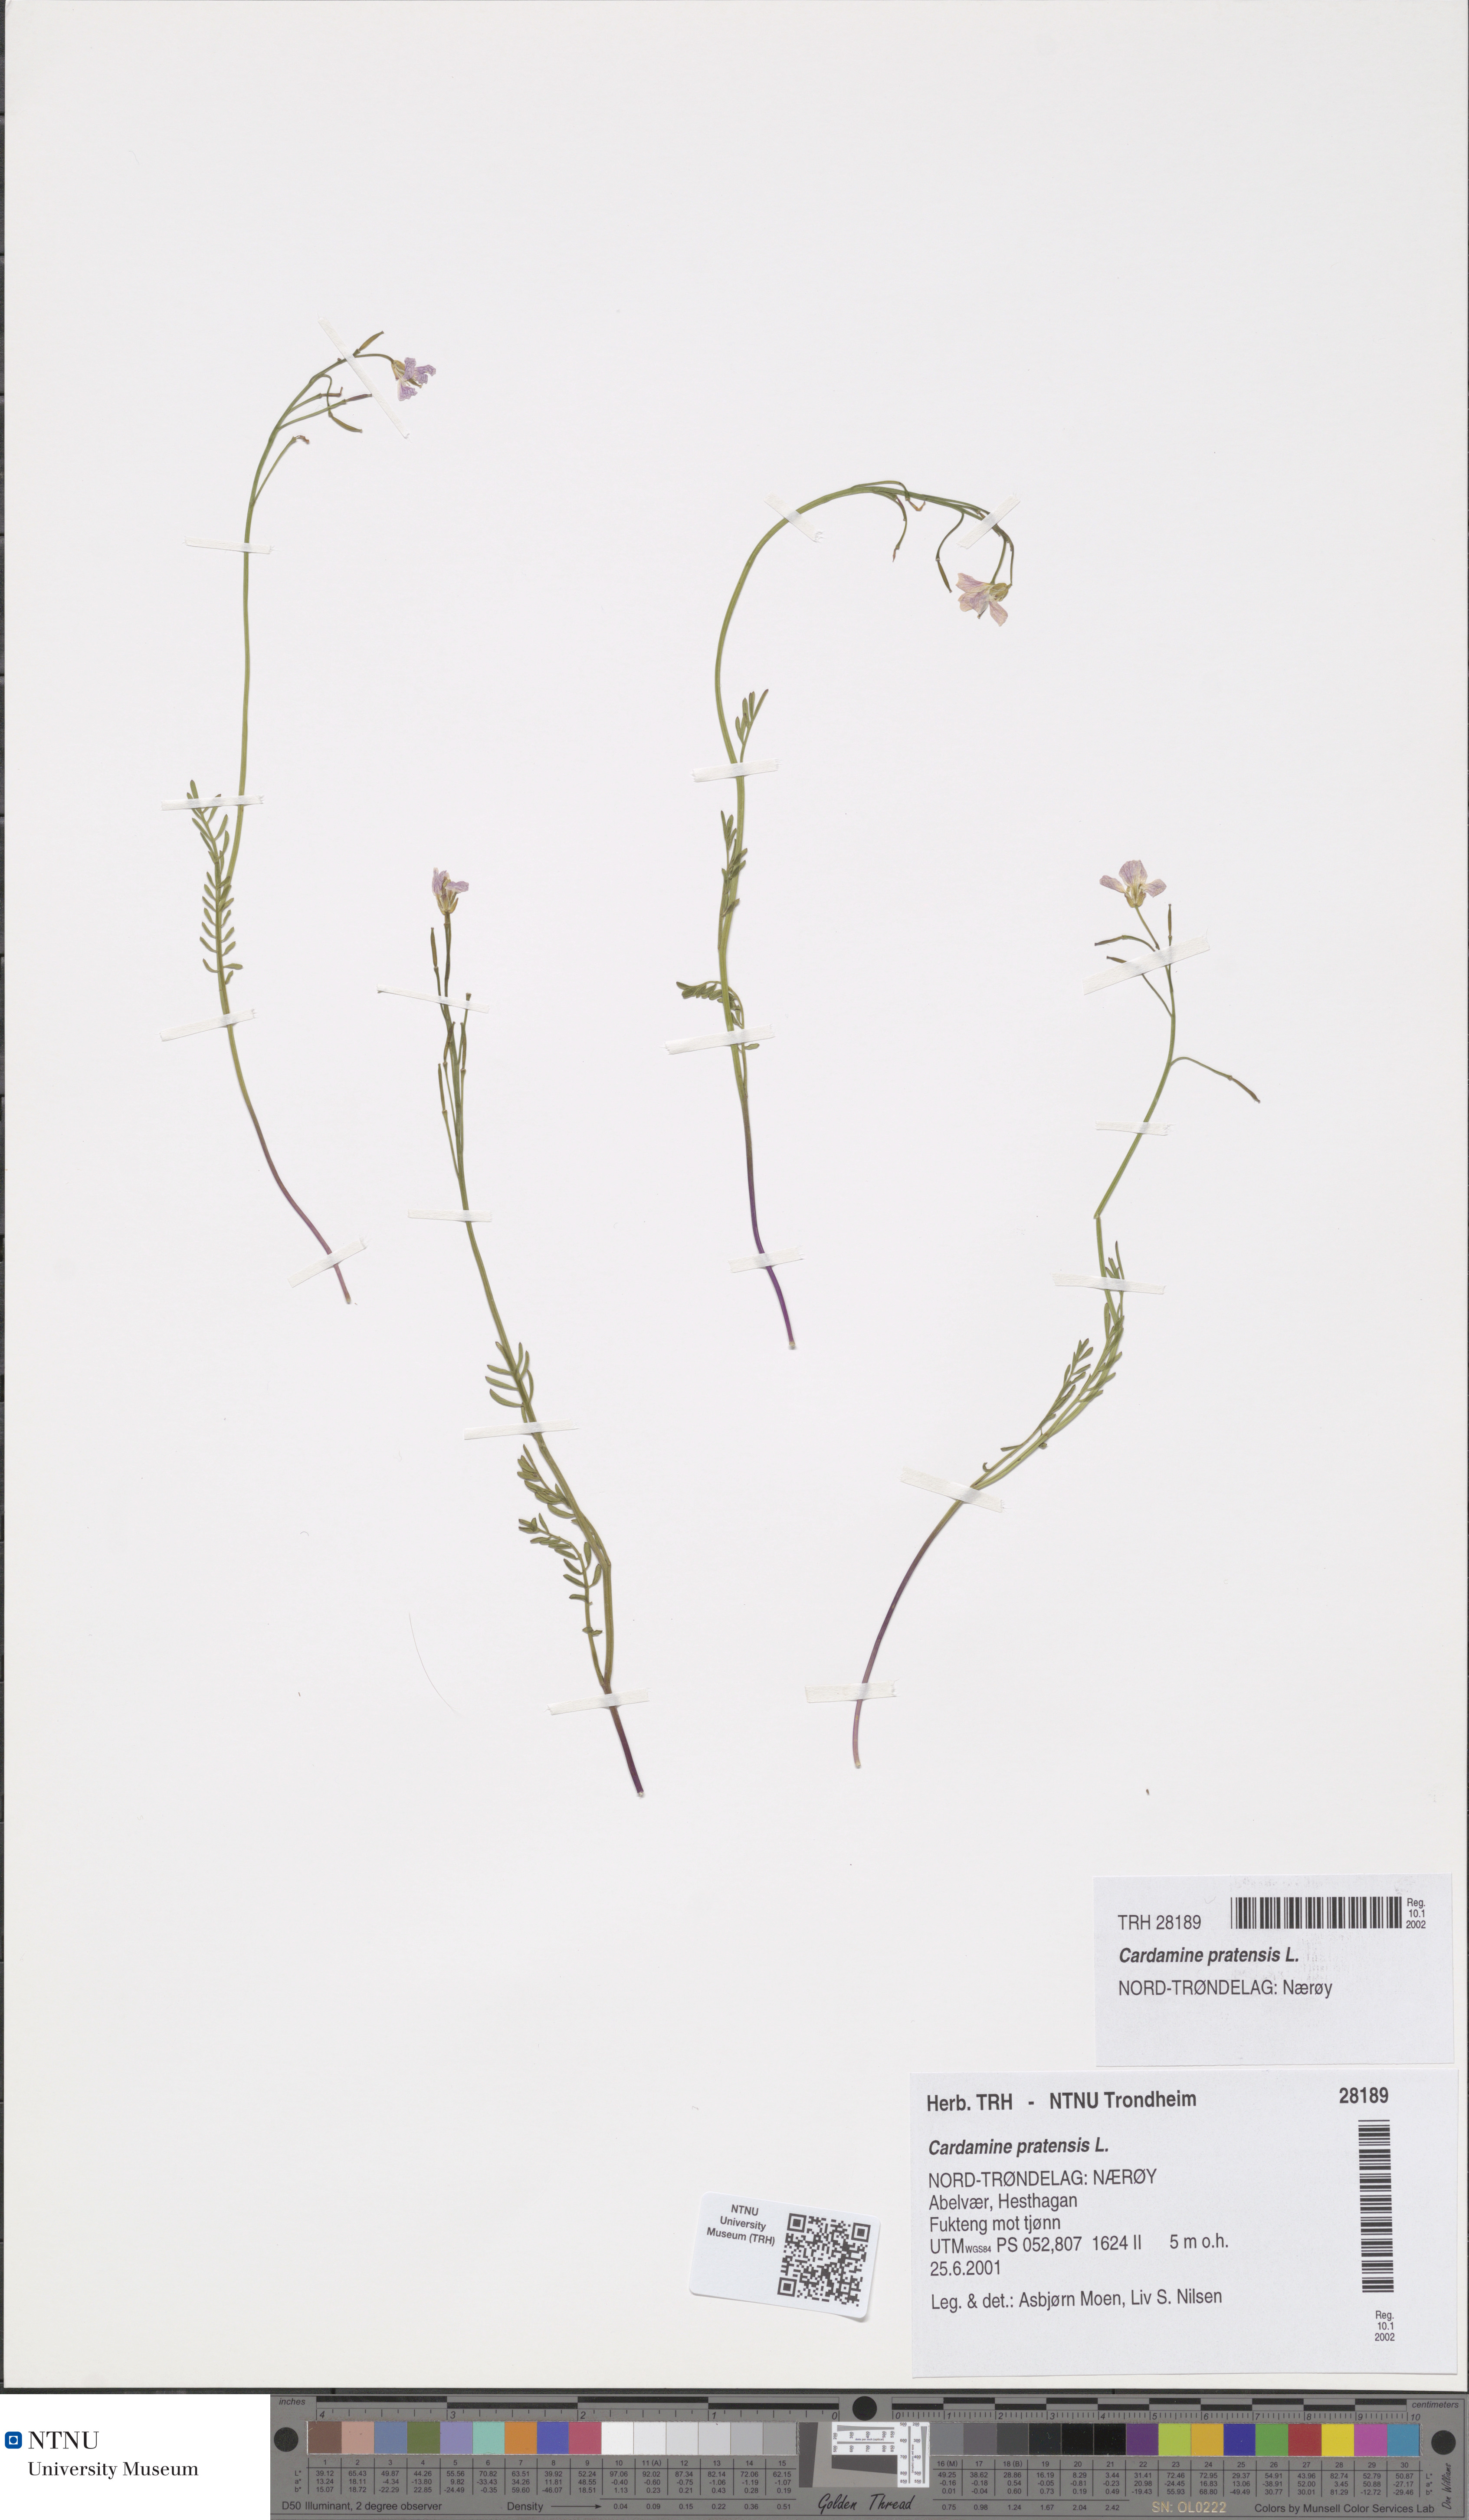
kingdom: Plantae
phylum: Tracheophyta
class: Magnoliopsida
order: Brassicales
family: Brassicaceae
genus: Cardamine
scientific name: Cardamine pratensis
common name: Cuckoo flower
